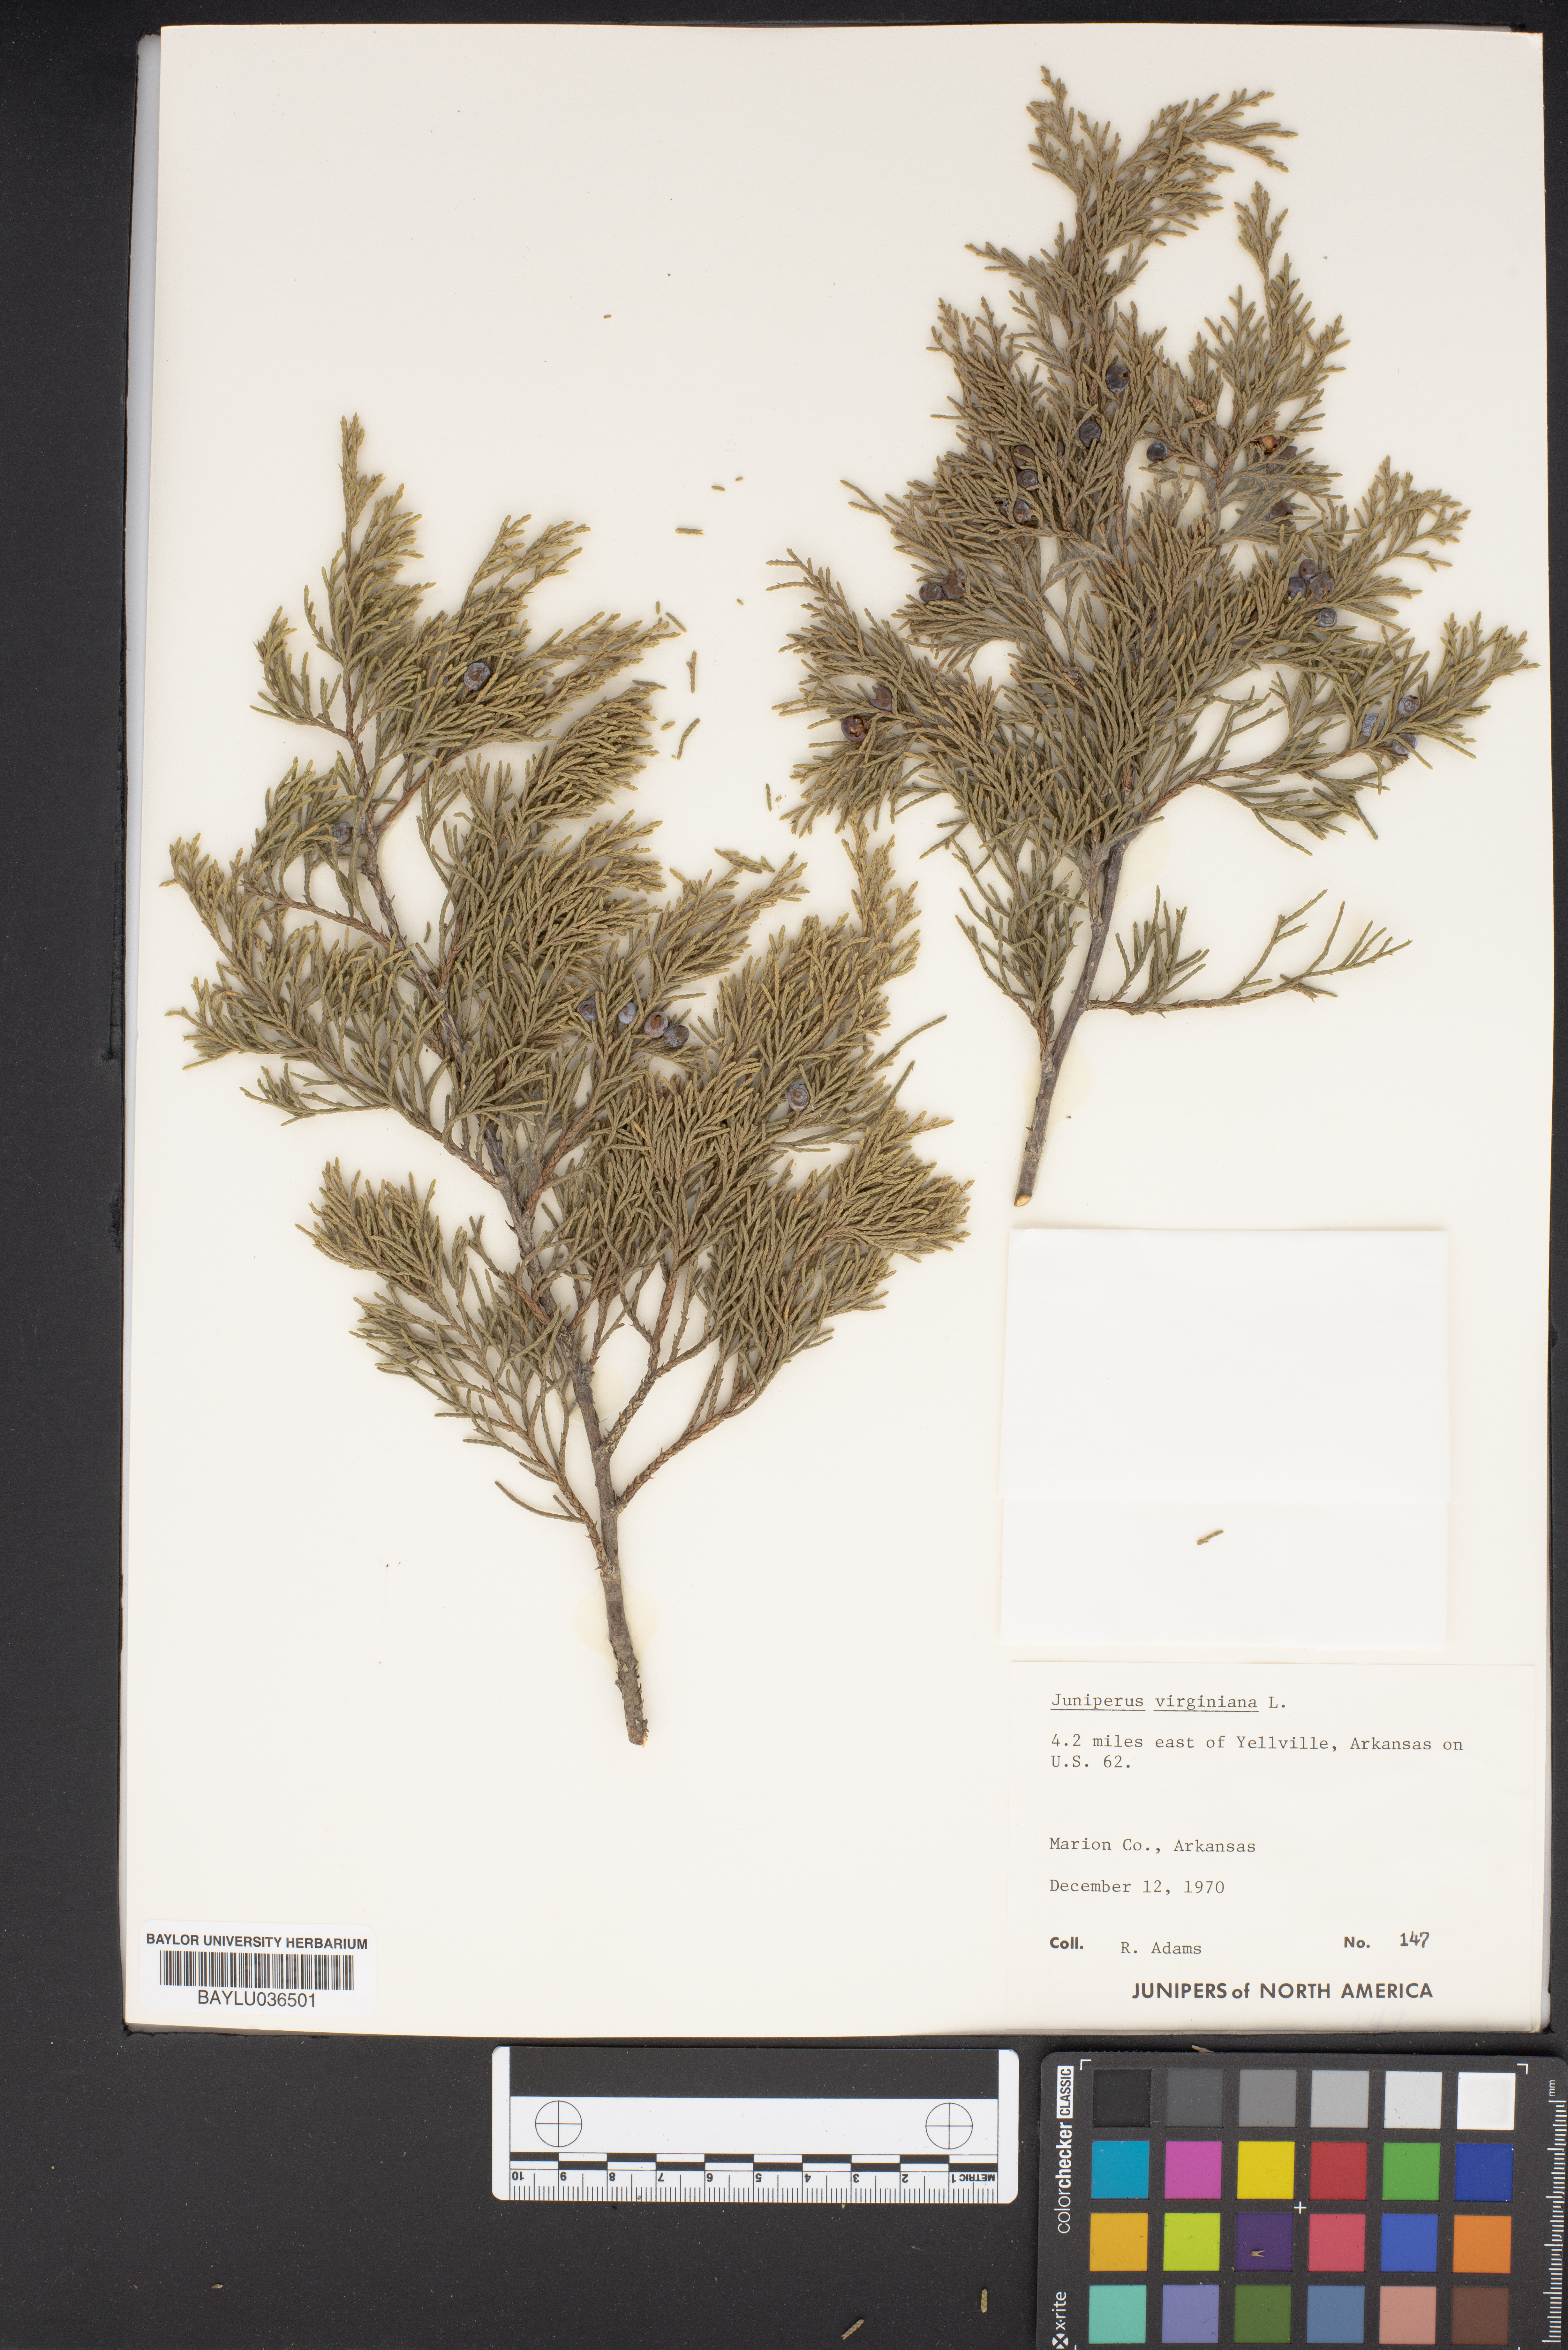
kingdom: Plantae
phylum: Tracheophyta
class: Pinopsida
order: Pinales
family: Cupressaceae
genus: Juniperus
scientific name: Juniperus virginiana
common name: Red juniper
